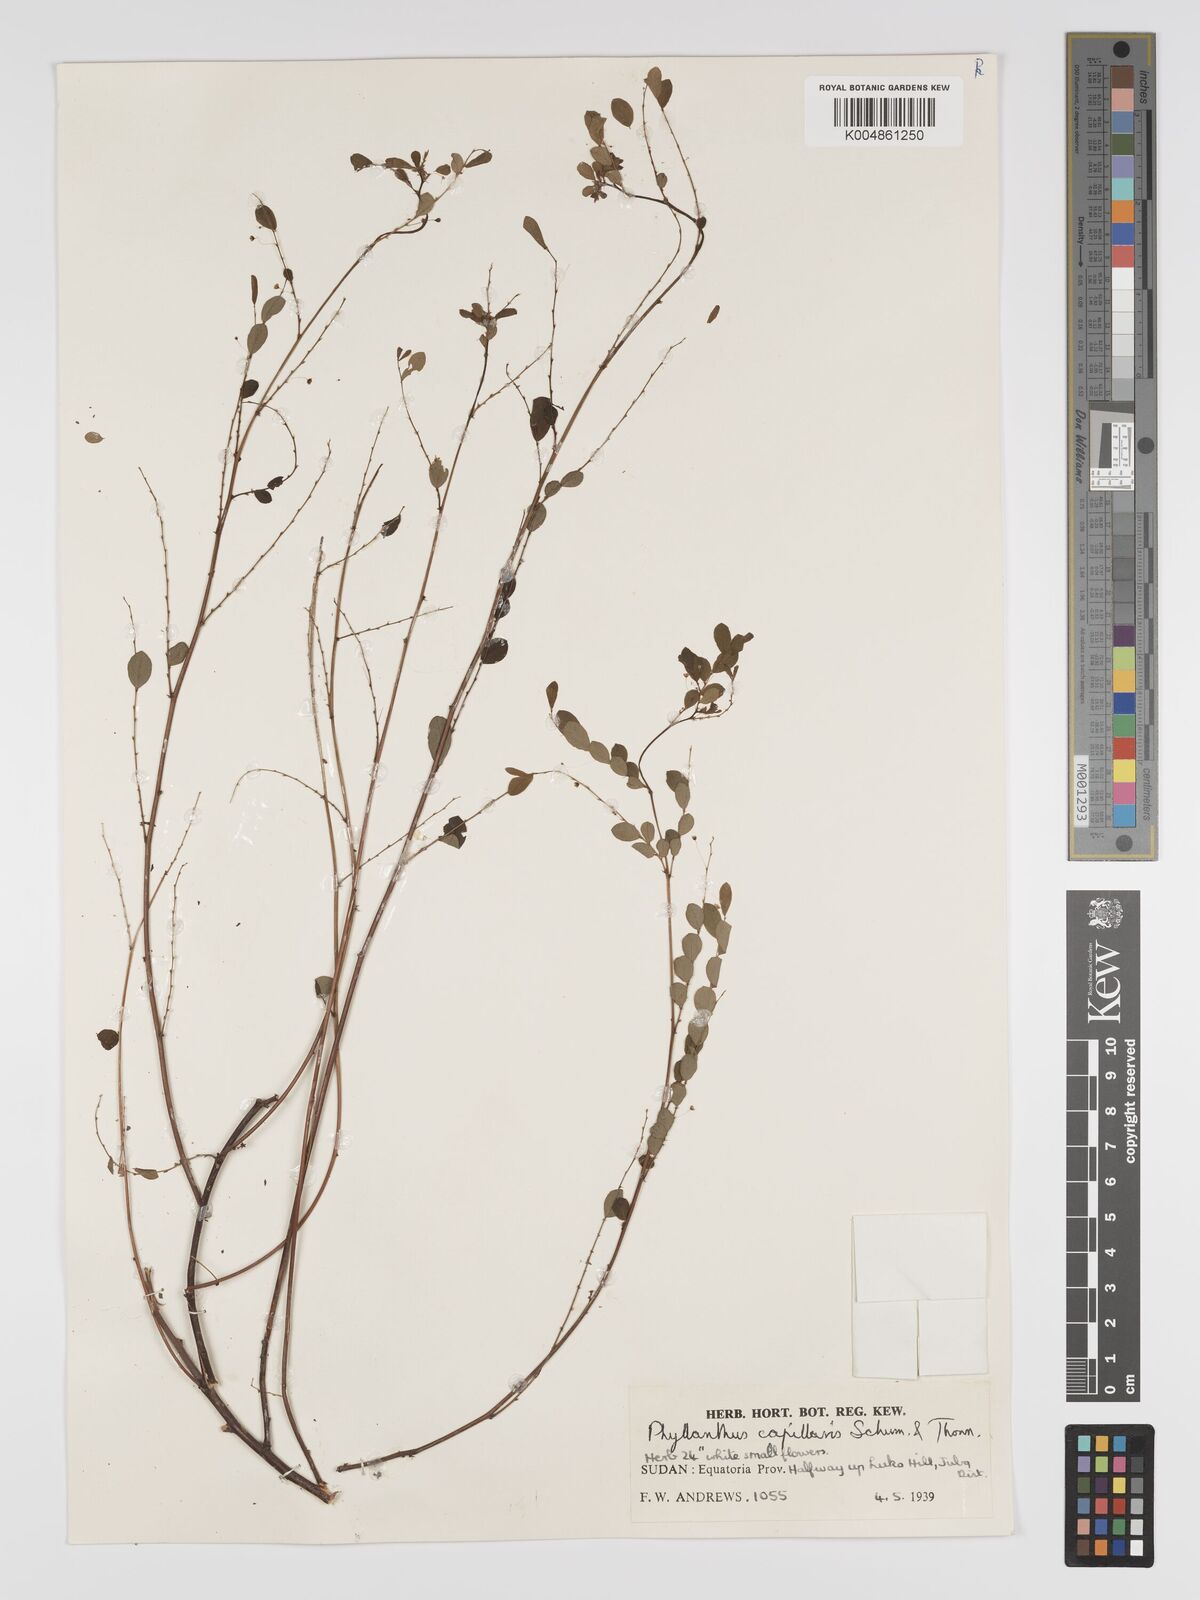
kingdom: Plantae
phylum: Tracheophyta
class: Magnoliopsida
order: Malpighiales
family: Phyllanthaceae
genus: Phyllanthus
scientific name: Phyllanthus nummulariifolius
